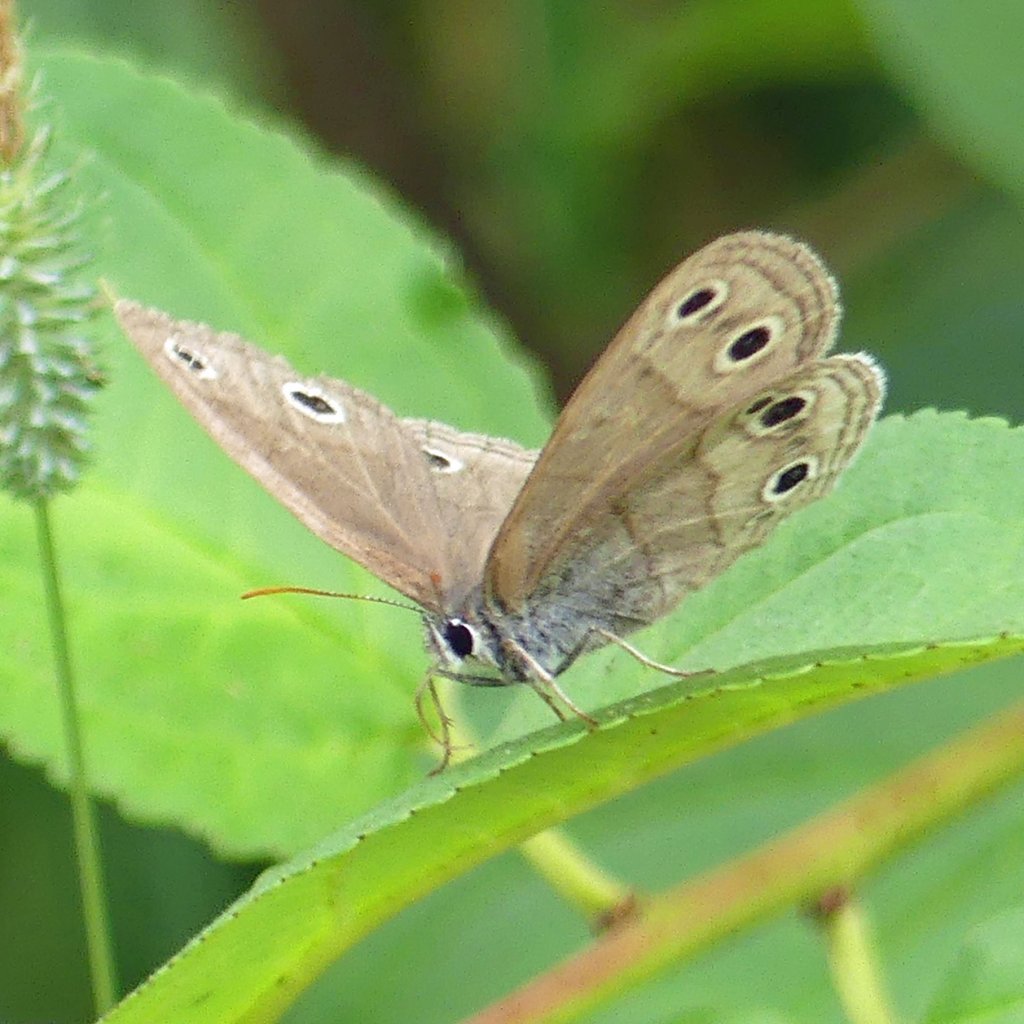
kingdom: Animalia
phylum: Arthropoda
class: Insecta
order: Lepidoptera
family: Nymphalidae
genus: Euptychia
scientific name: Euptychia cymela
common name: Little Wood Satyr
